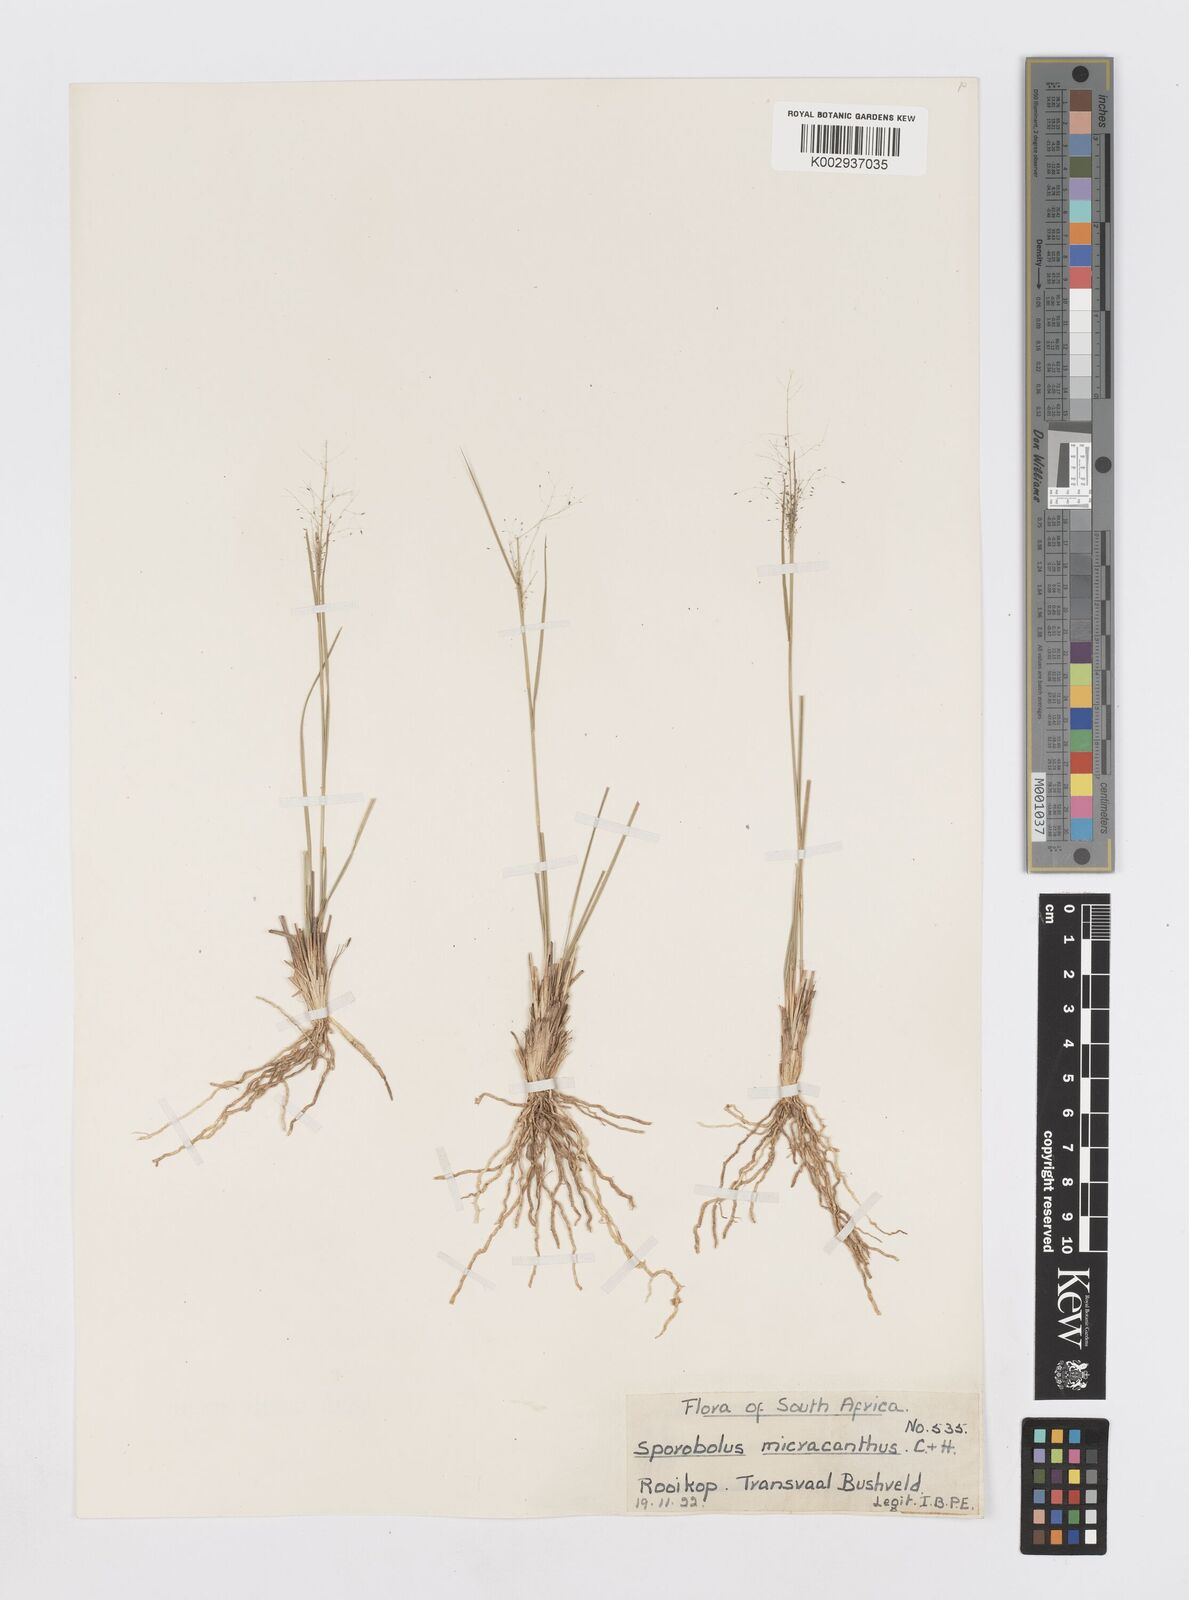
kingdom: Plantae
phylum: Tracheophyta
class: Liliopsida
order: Poales
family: Poaceae
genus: Sporobolus
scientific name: Sporobolus welwitschii
